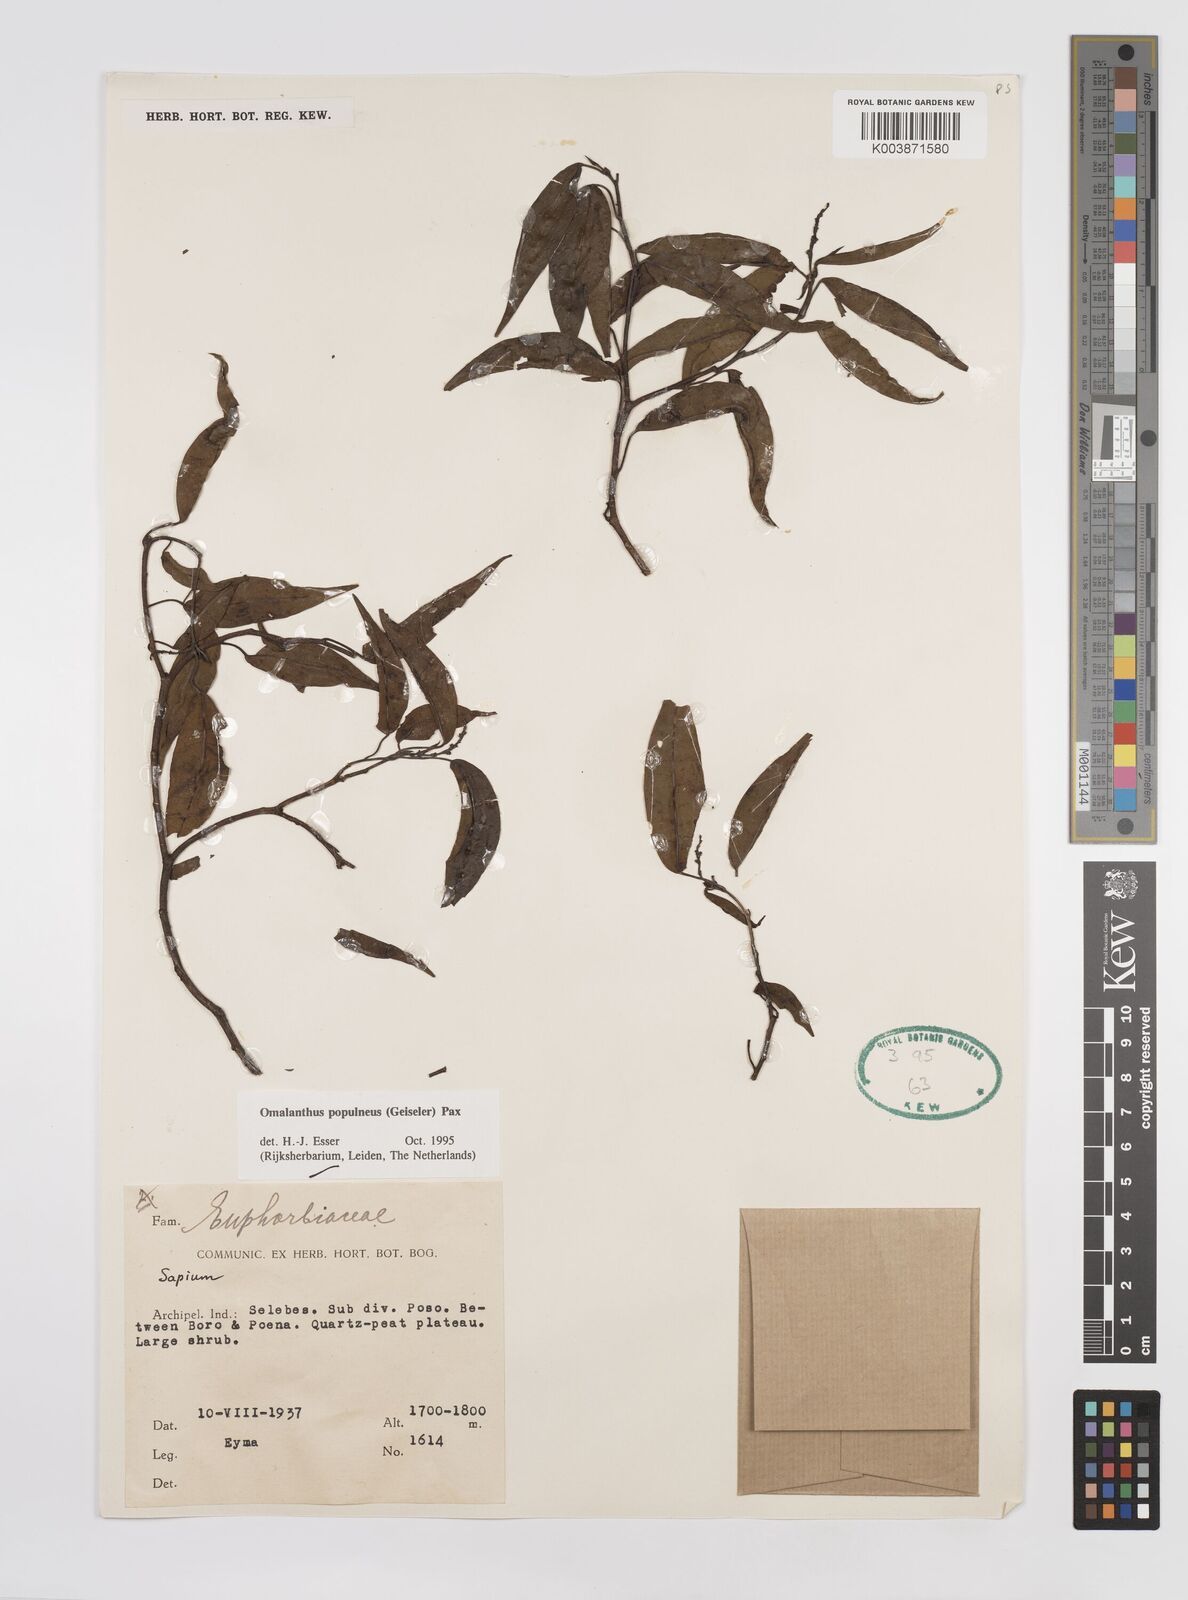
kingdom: Plantae
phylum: Tracheophyta
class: Magnoliopsida
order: Malpighiales
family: Euphorbiaceae
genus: Homalanthus
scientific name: Homalanthus populneus
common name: Spurge
